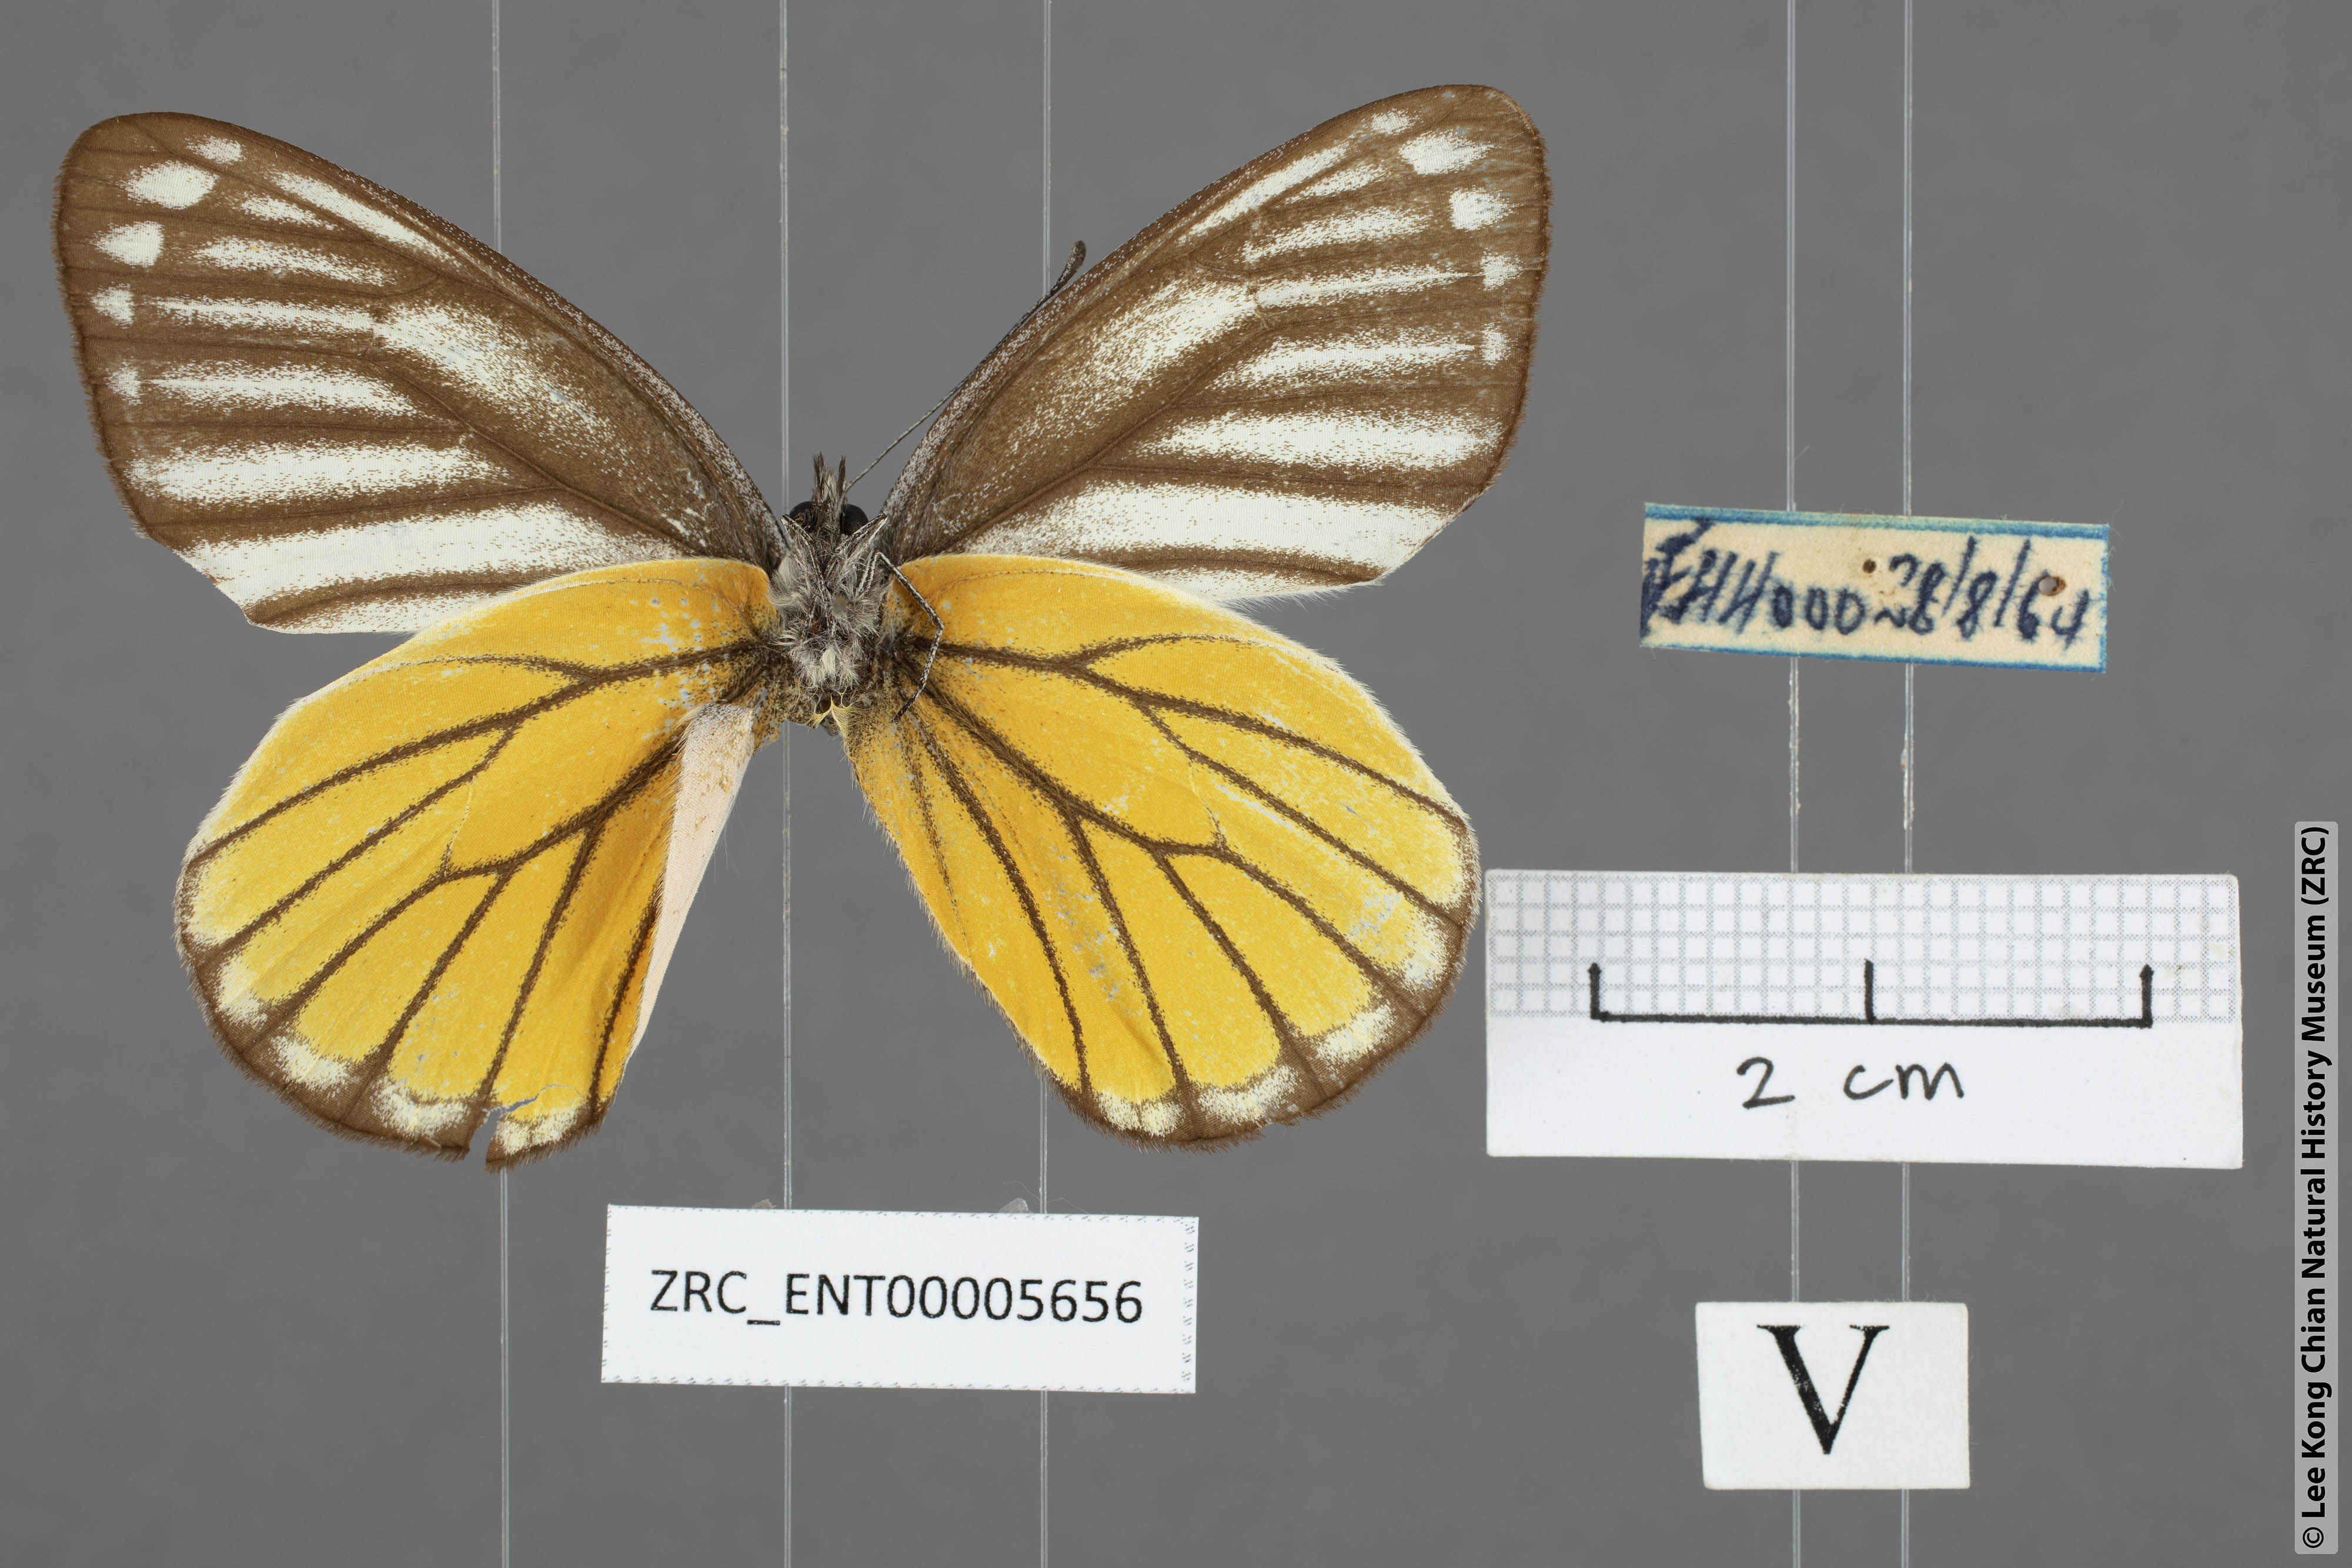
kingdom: Animalia
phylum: Arthropoda
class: Insecta
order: Lepidoptera
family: Pieridae
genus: Delias
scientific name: Delias baracasa
